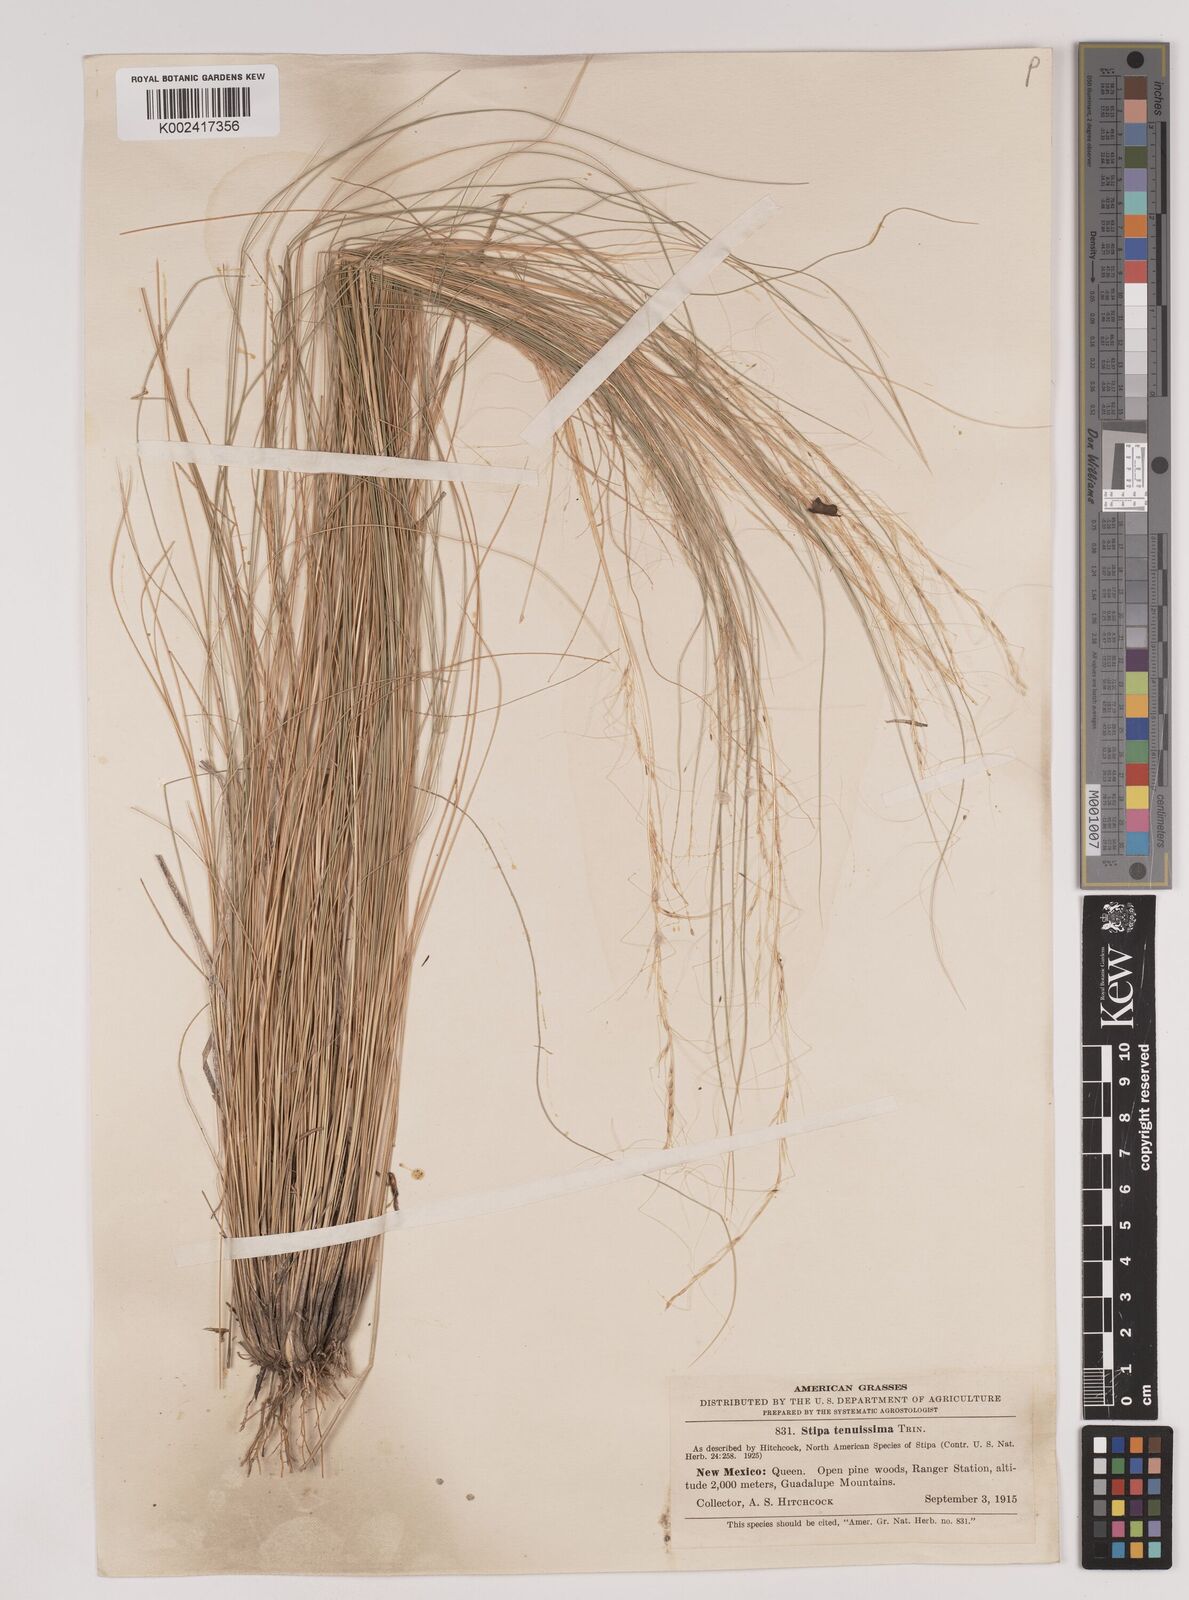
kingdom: Plantae
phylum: Tracheophyta
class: Liliopsida
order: Poales
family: Poaceae
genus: Nassella
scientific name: Nassella tenuissima
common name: Argentine needlegrass
